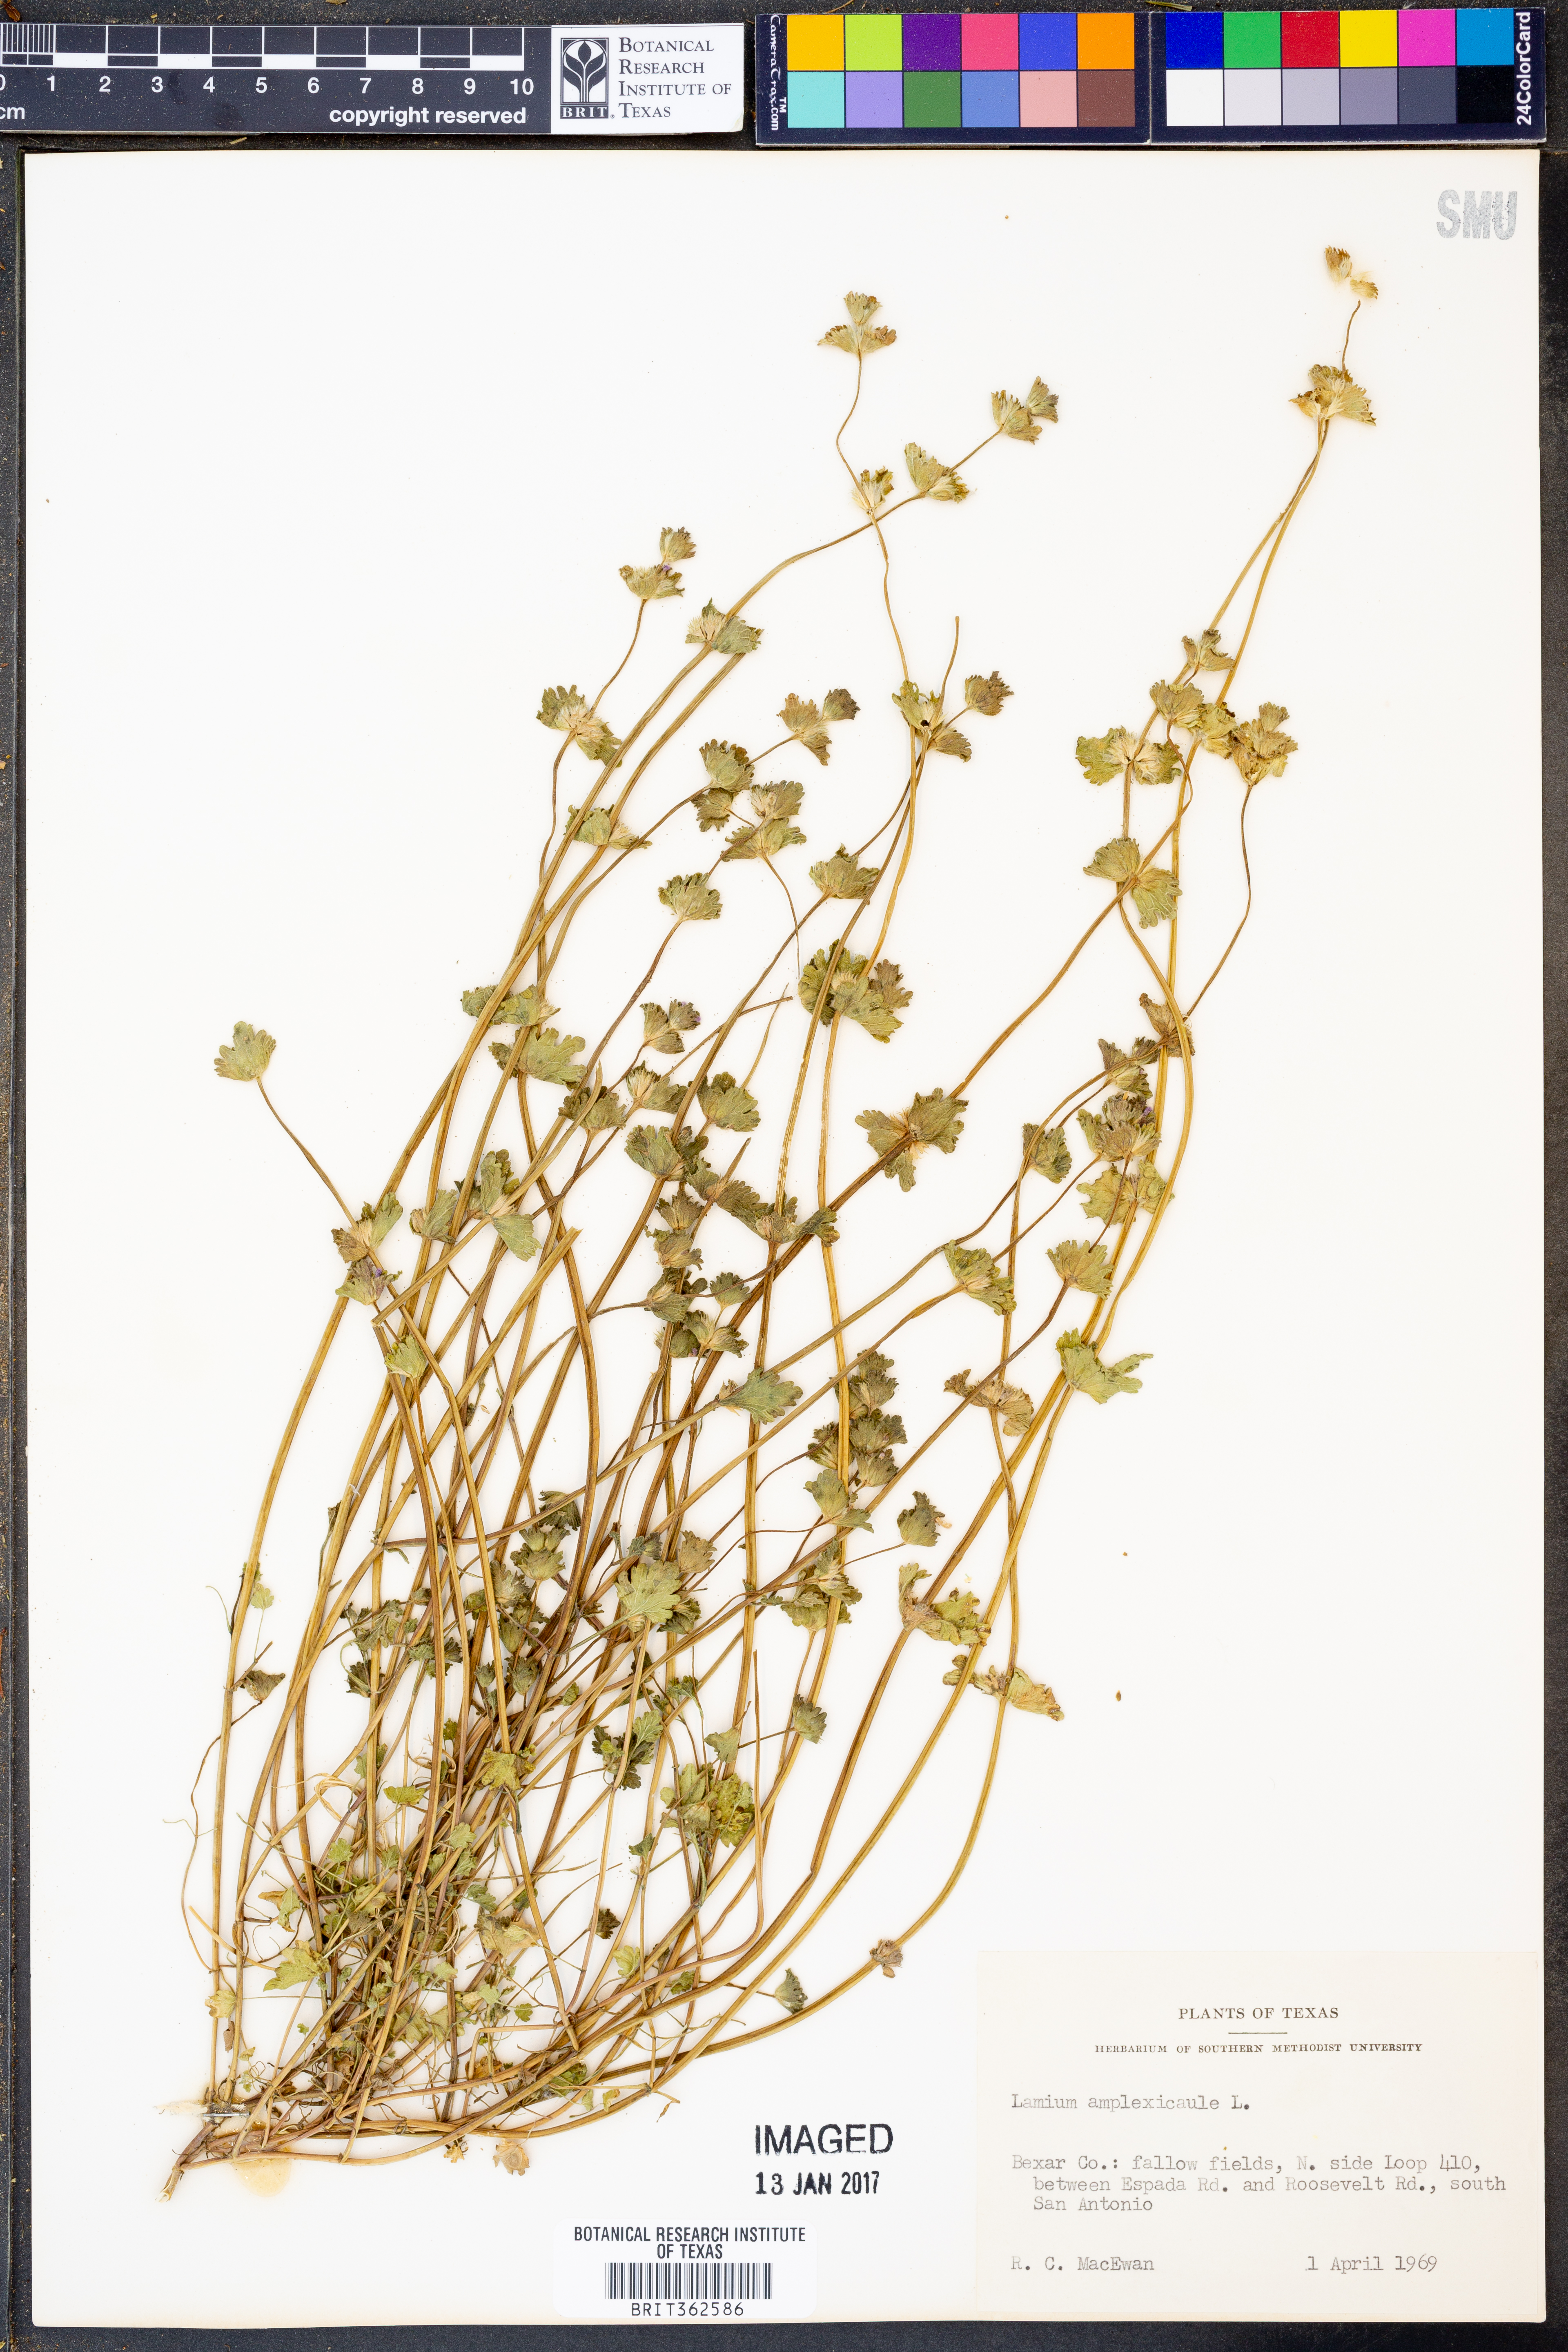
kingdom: Plantae
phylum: Tracheophyta
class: Magnoliopsida
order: Lamiales
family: Lamiaceae
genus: Lamium
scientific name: Lamium amplexicaule
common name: Henbit dead-nettle
